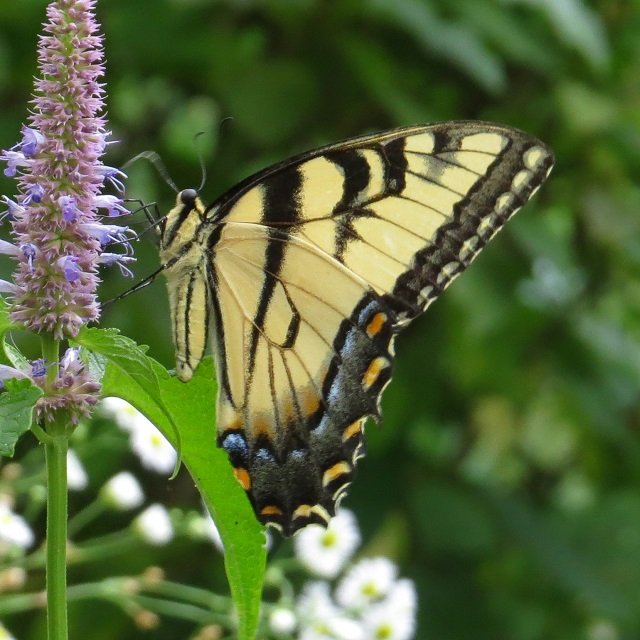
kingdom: Animalia
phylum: Arthropoda
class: Insecta
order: Lepidoptera
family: Papilionidae
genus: Pterourus
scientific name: Pterourus glaucus
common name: Eastern Tiger Swallowtail
